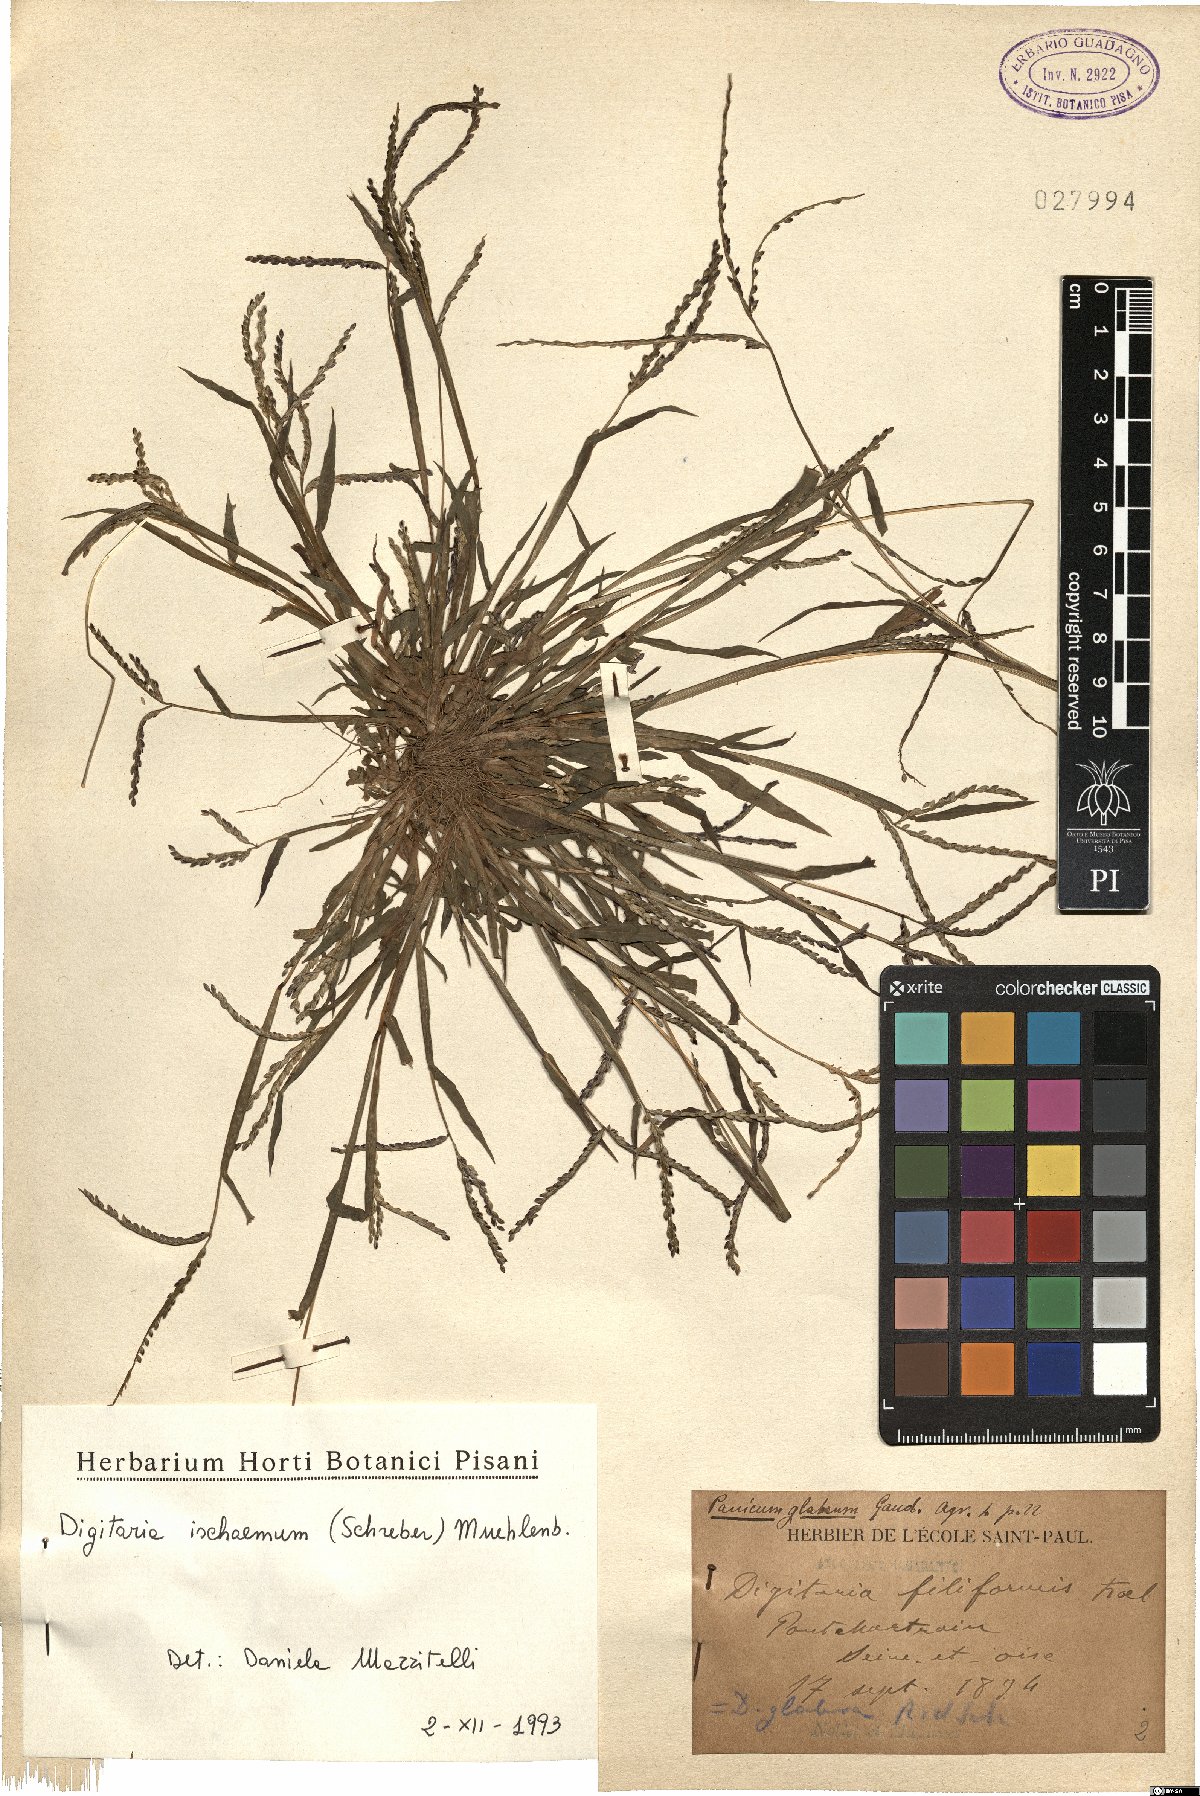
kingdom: Plantae
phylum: Tracheophyta
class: Liliopsida
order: Poales
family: Poaceae
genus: Digitaria
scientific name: Digitaria ischaemum
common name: Smooth crabgrass
